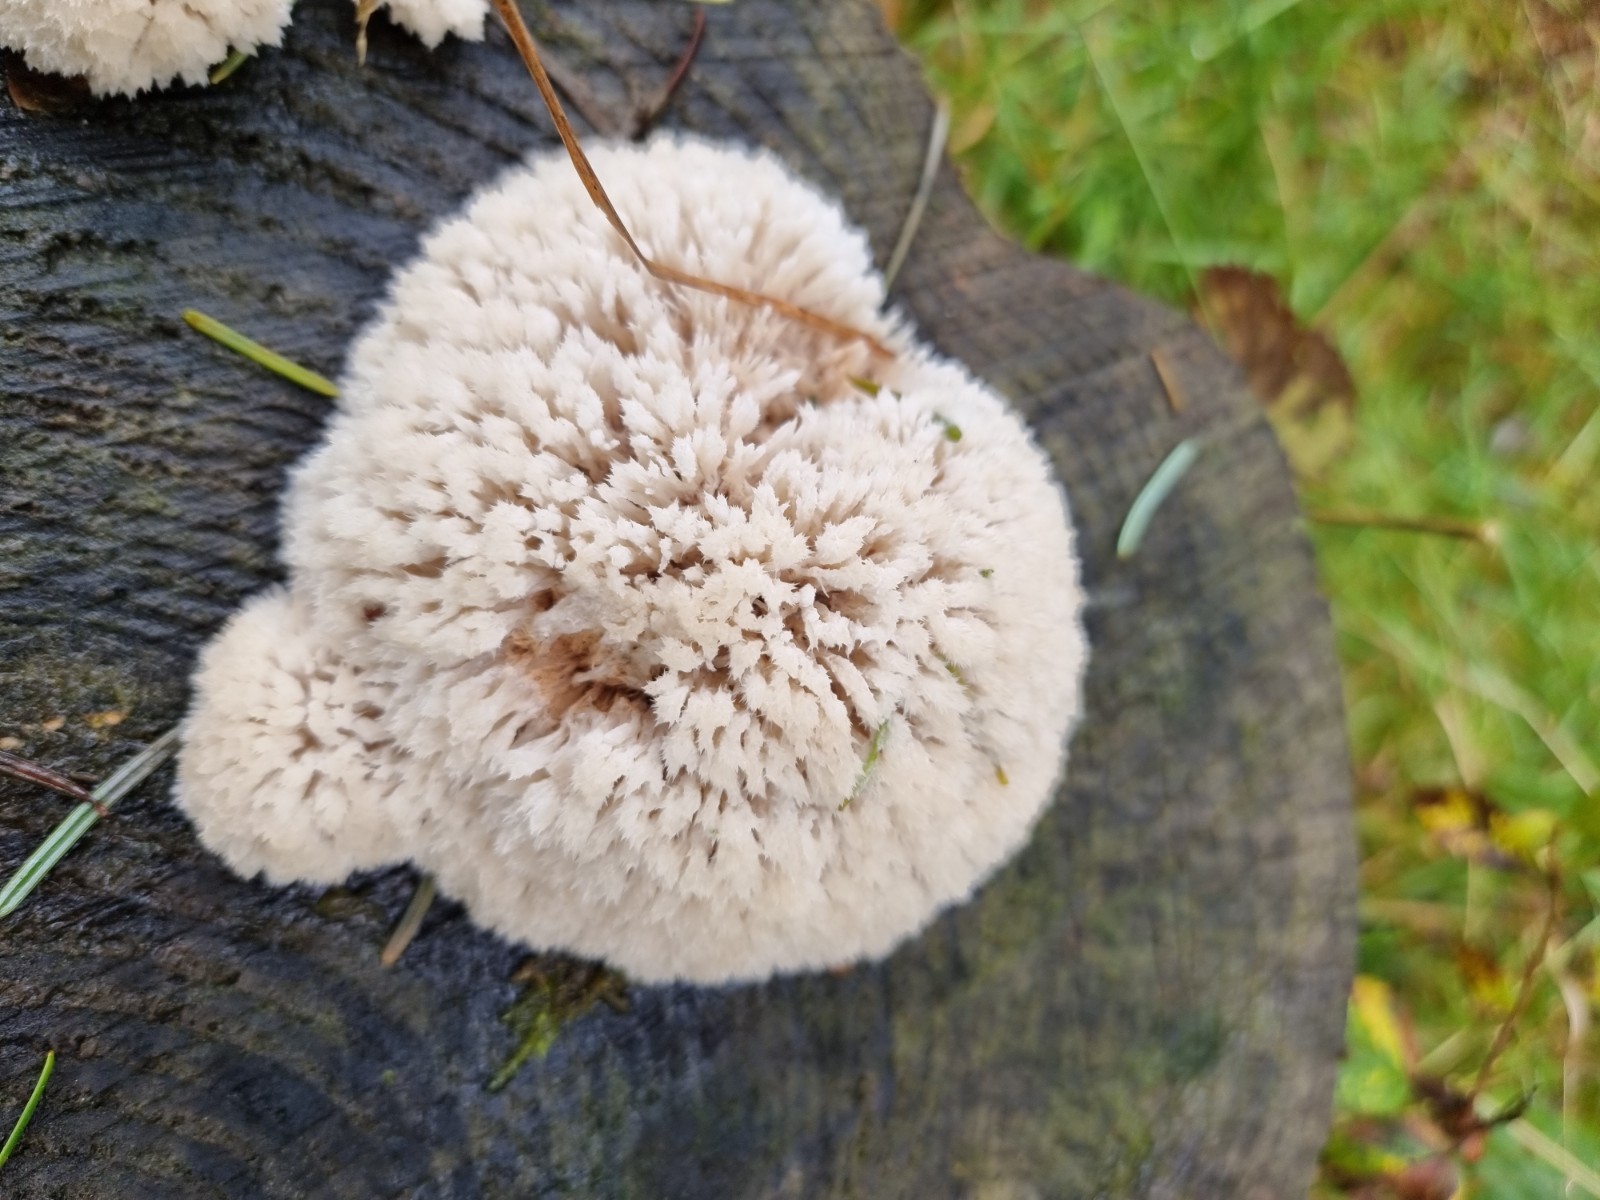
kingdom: Fungi
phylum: Basidiomycota
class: Agaricomycetes
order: Polyporales
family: Dacryobolaceae
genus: Postia
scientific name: Postia ptychogaster
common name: støvende kødporesvamp
